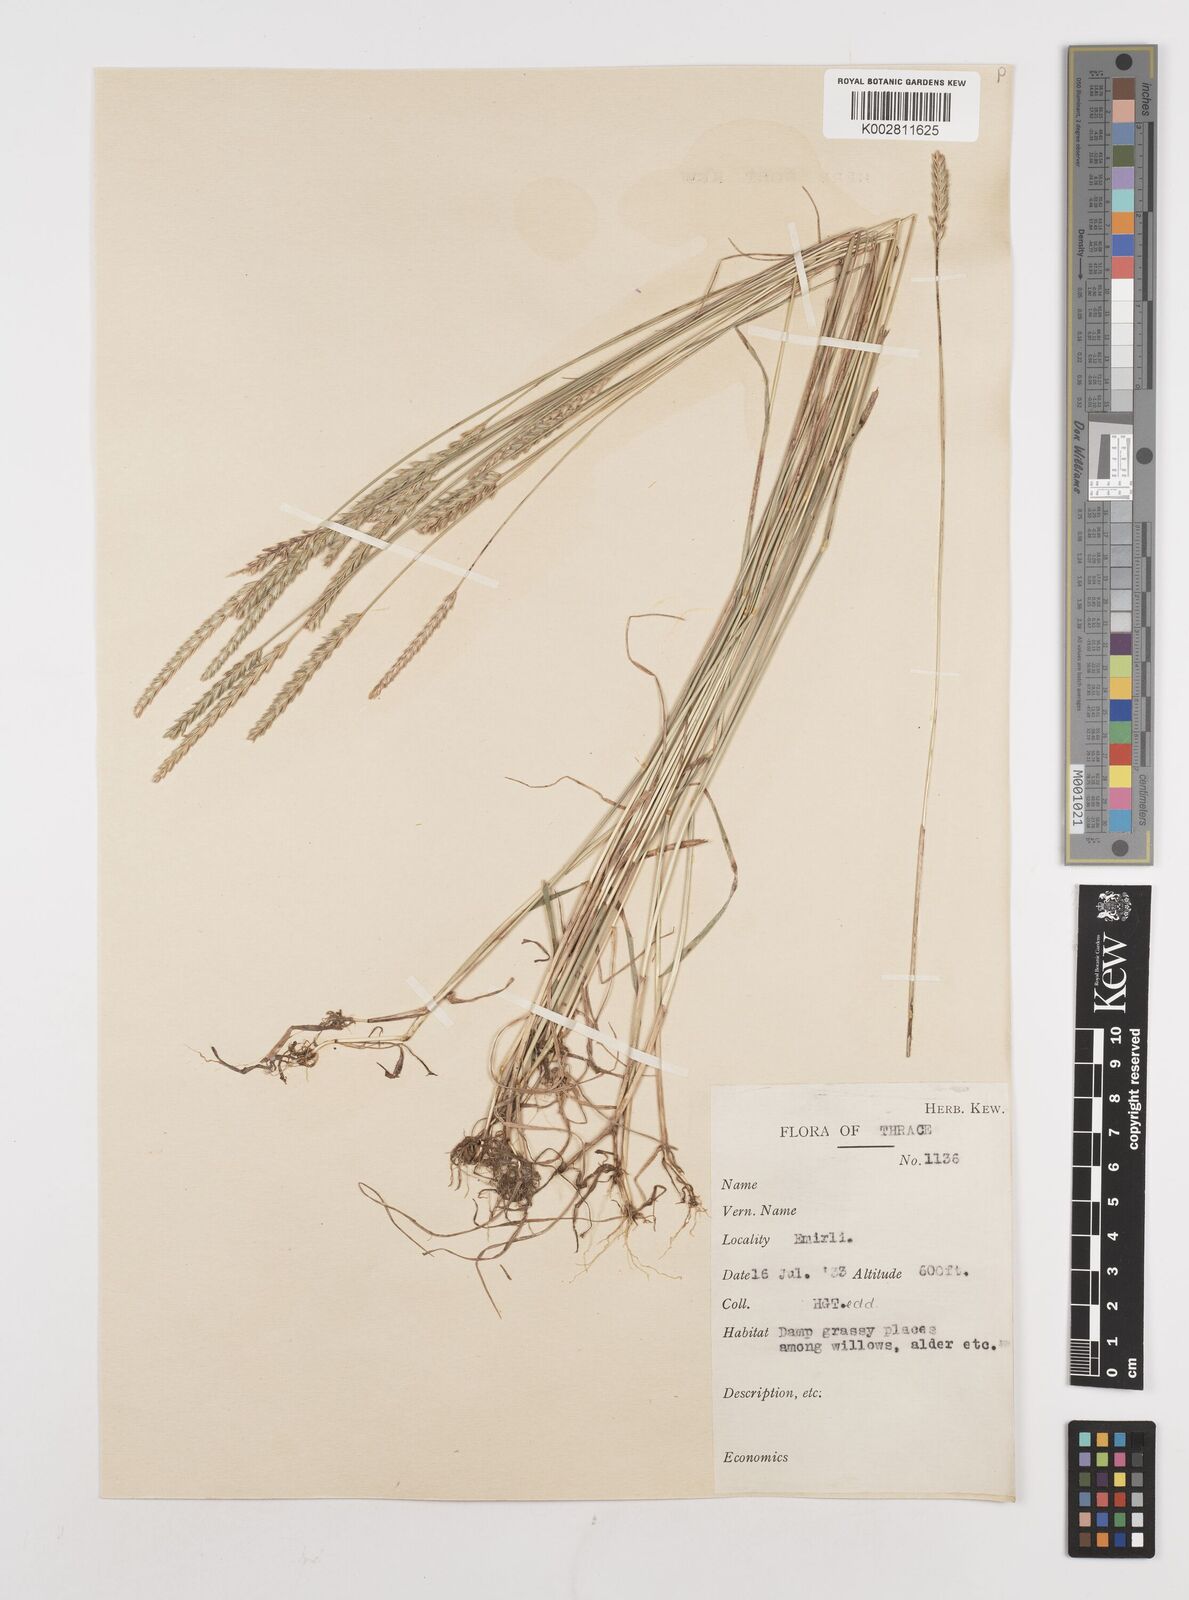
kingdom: Plantae
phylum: Tracheophyta
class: Liliopsida
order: Poales
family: Poaceae
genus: Cynosurus
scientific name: Cynosurus cristatus
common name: Crested dog's-tail
